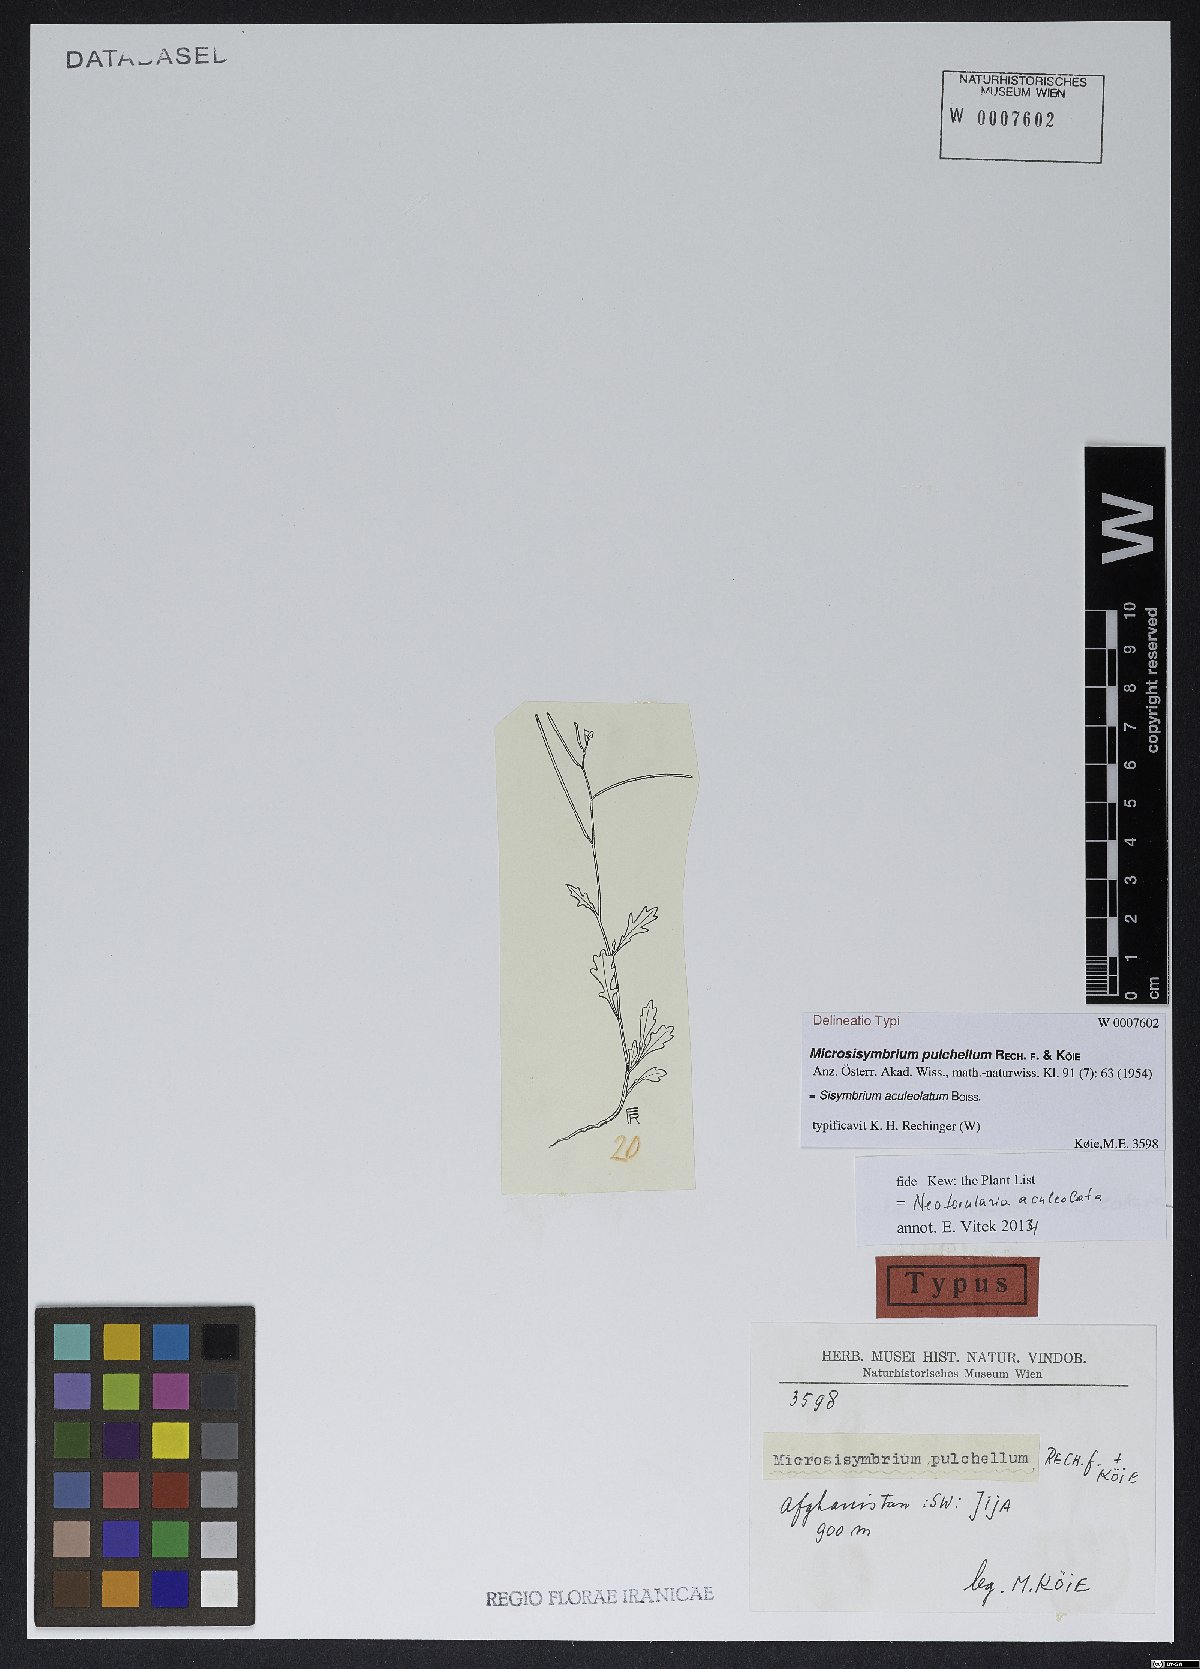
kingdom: Plantae
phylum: Tracheophyta
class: Magnoliopsida
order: Brassicales
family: Brassicaceae
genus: Sisymbrium
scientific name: Sisymbrium aculeolatum
